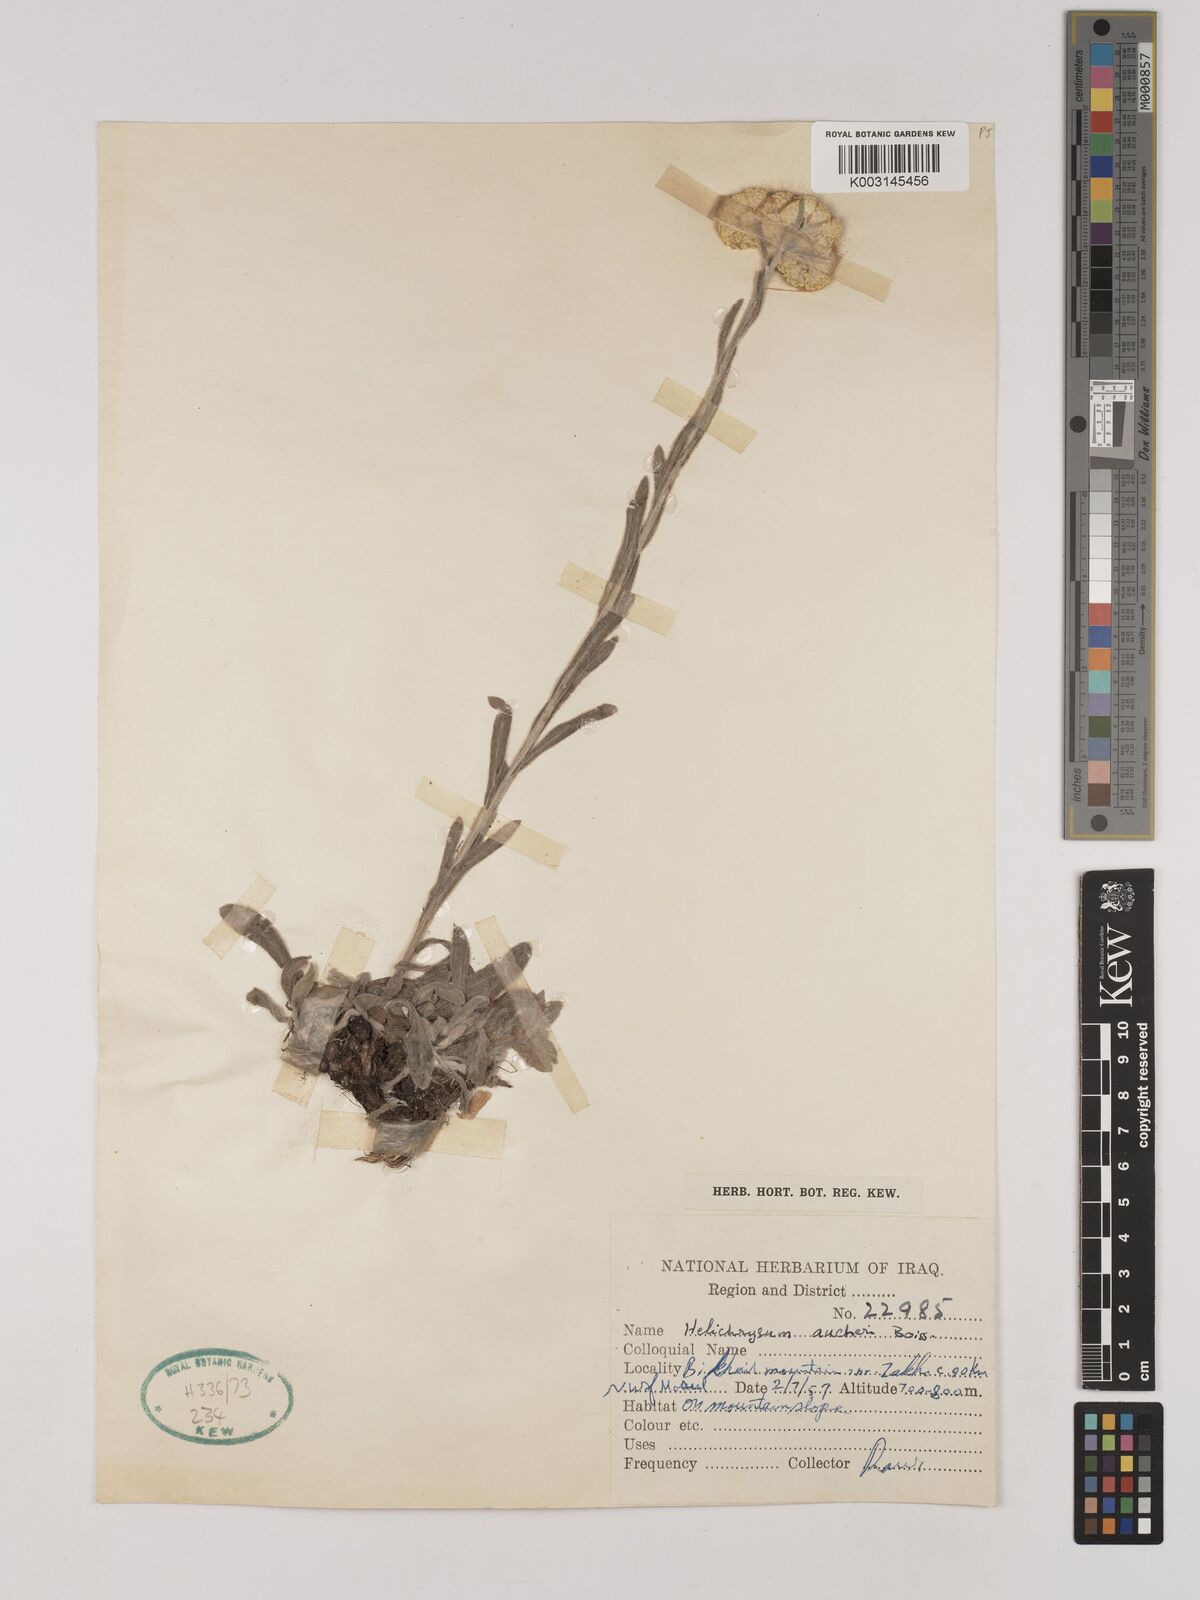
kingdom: Plantae
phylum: Tracheophyta
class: Magnoliopsida
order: Asterales
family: Asteraceae
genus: Helichrysum
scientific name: Helichrysum arenarium
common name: Strawflower
